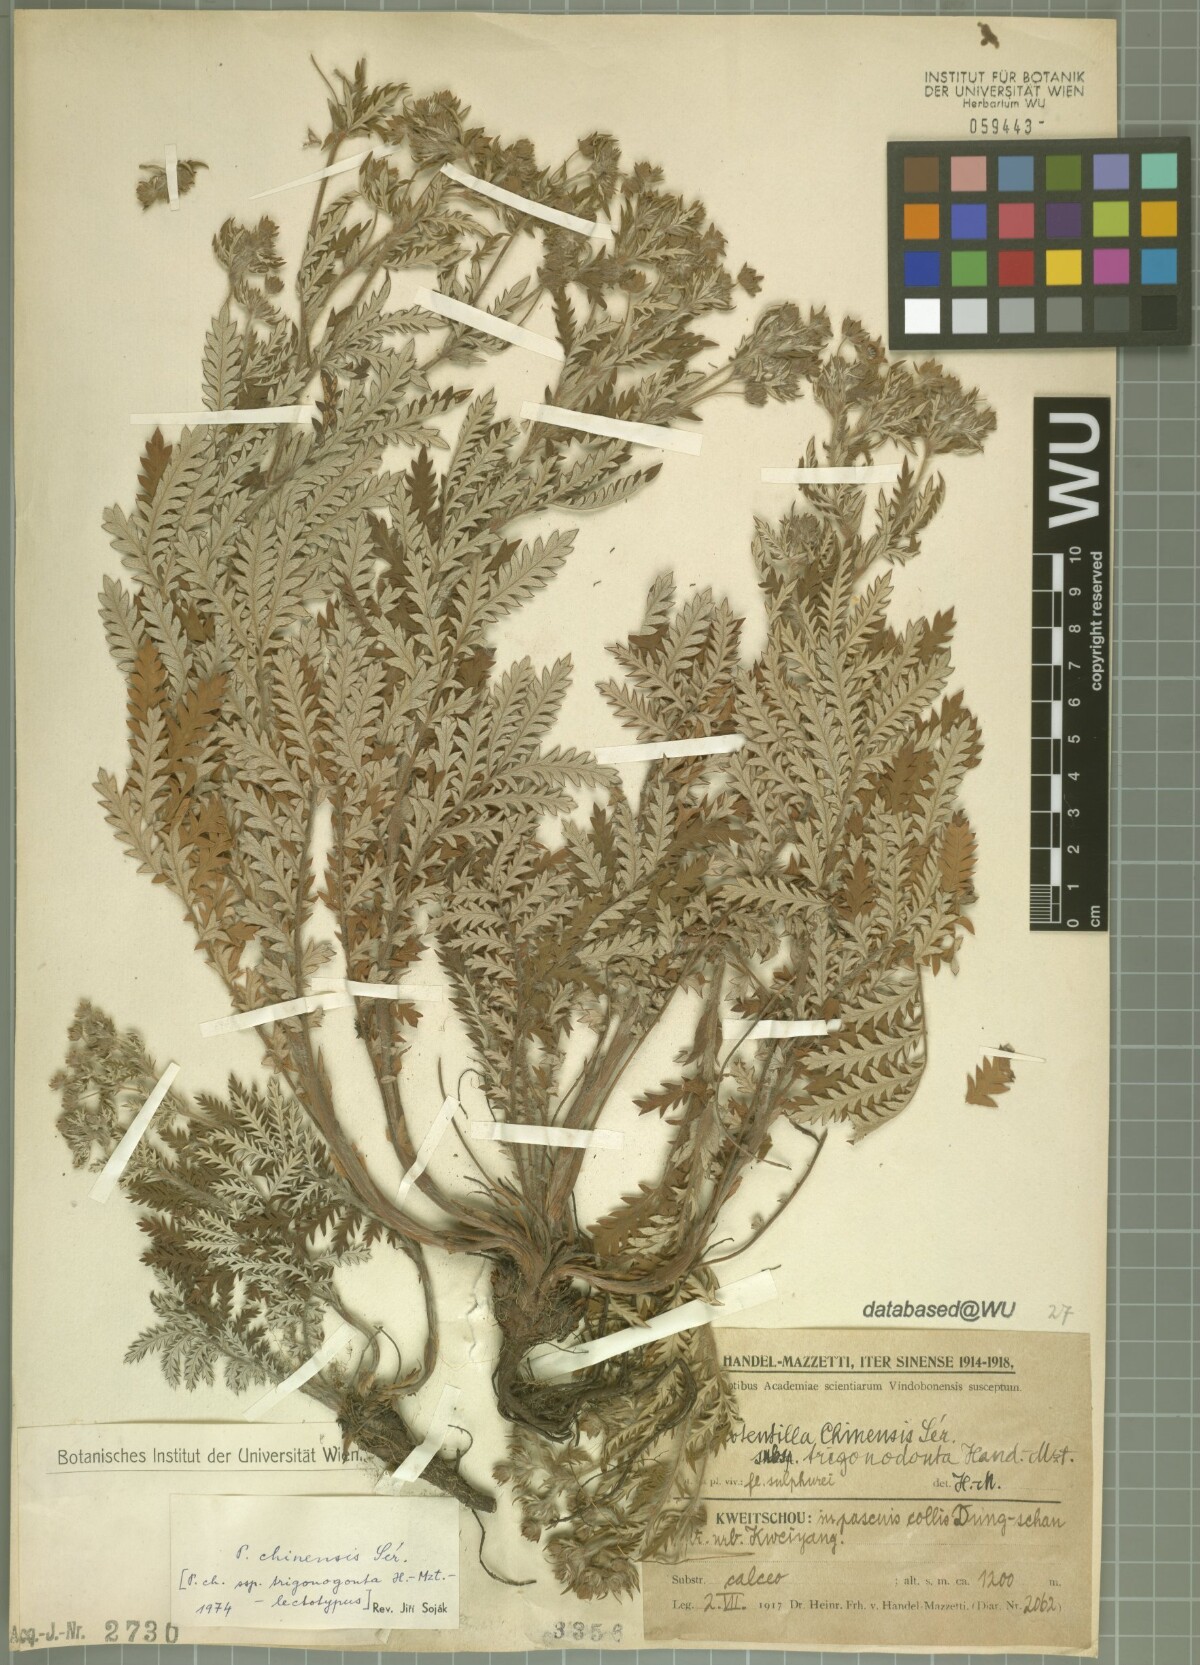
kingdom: Plantae
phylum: Tracheophyta
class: Magnoliopsida
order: Rosales
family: Rosaceae
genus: Potentilla
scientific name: Potentilla chinensis
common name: Chinese cinquefoil
